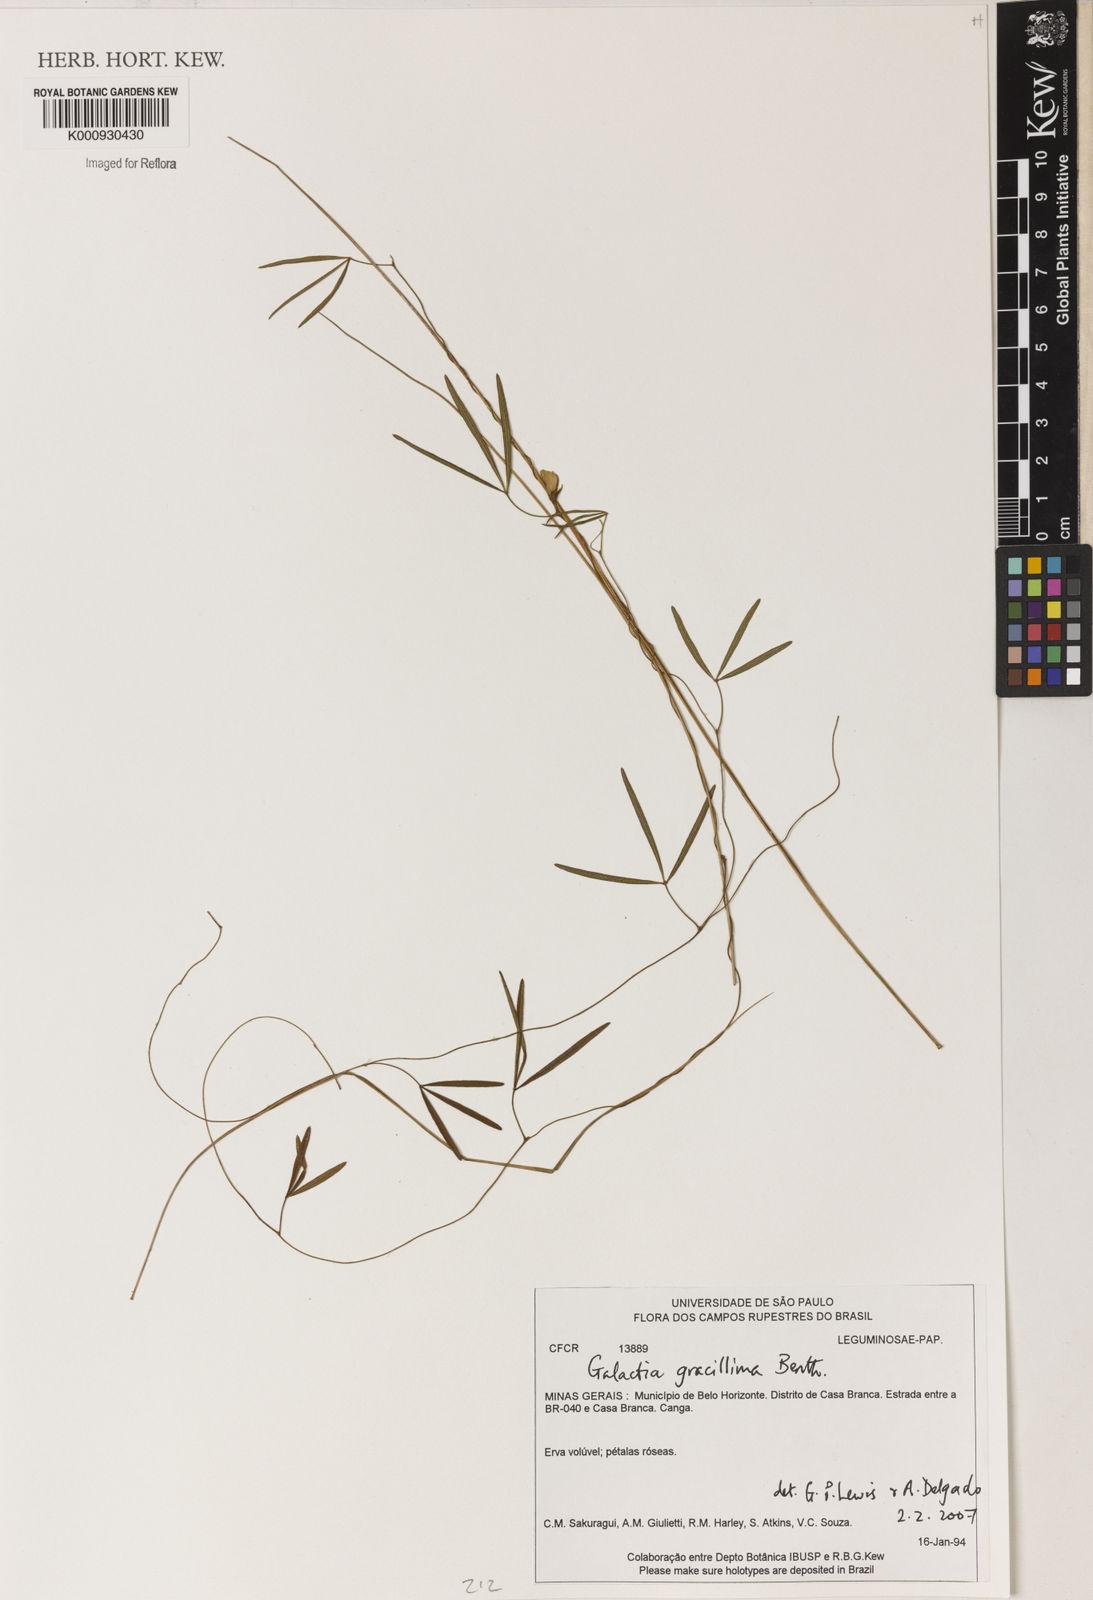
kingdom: Plantae
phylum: Tracheophyta
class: Magnoliopsida
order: Fabales
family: Fabaceae
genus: Betencourtia
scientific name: Betencourtia gracillima
